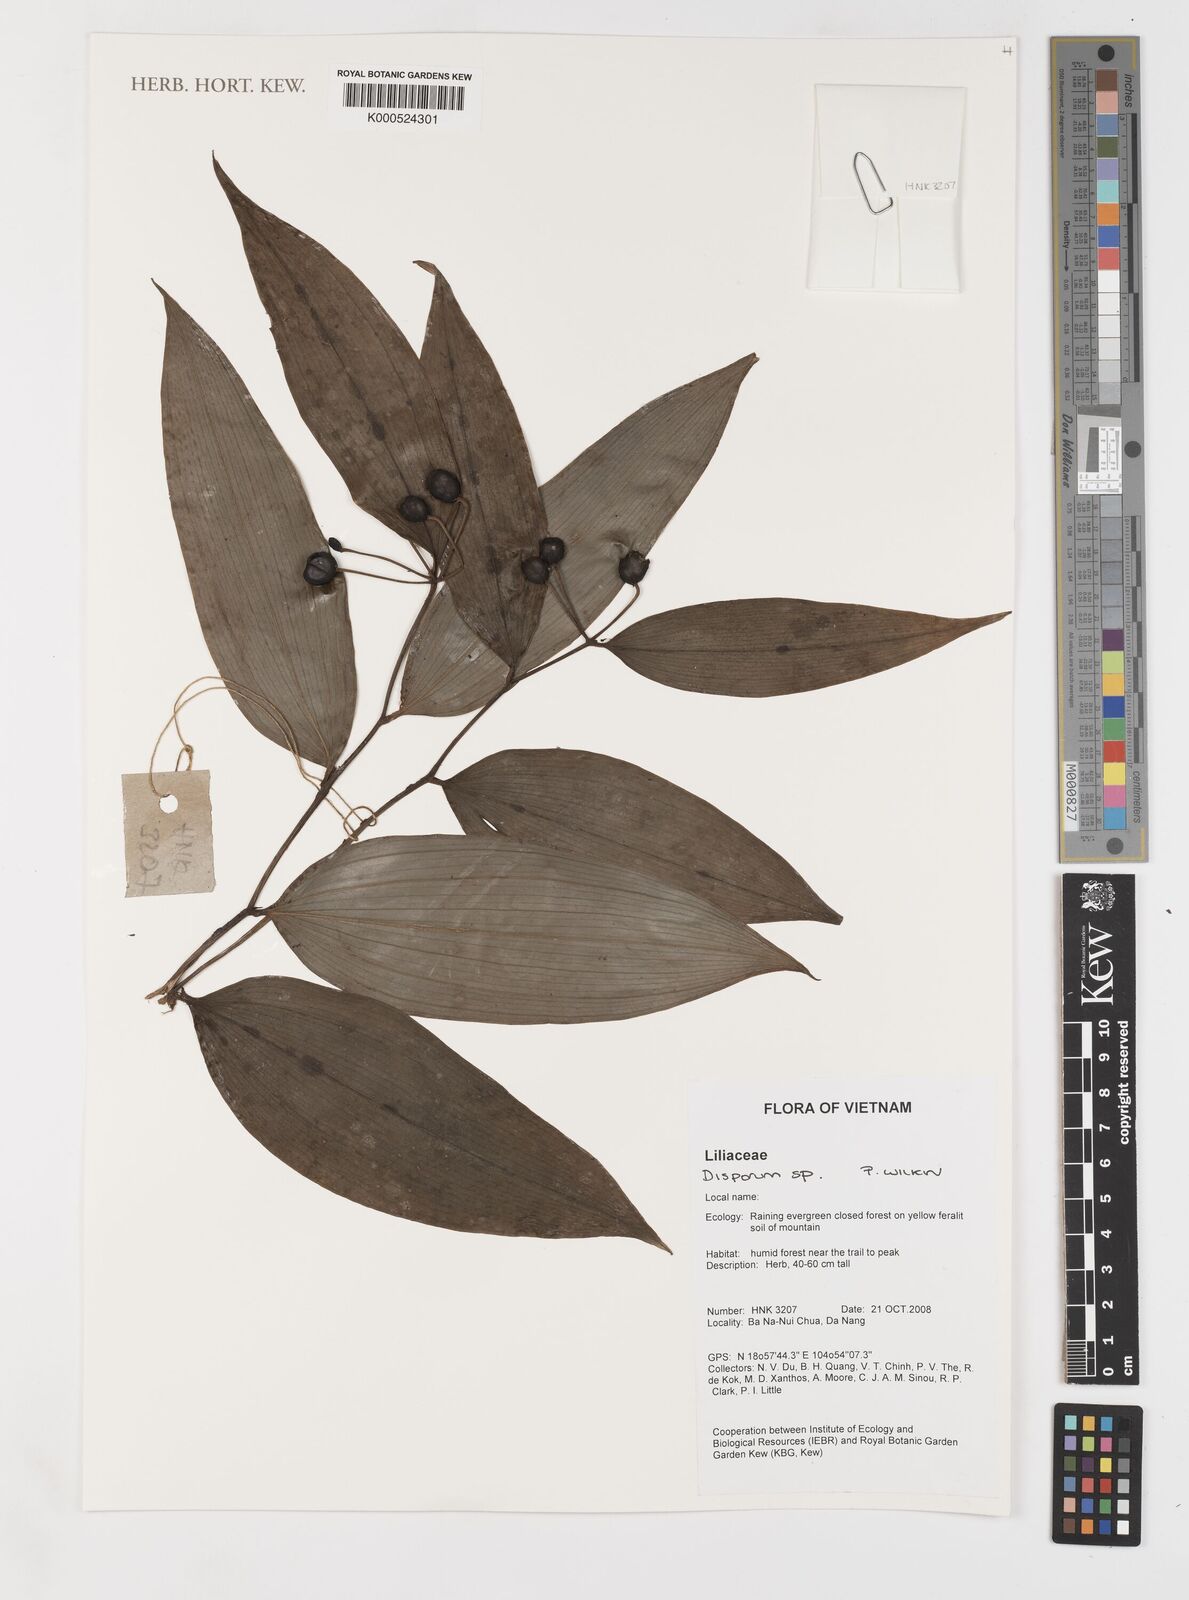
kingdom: Plantae
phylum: Tracheophyta
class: Liliopsida
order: Liliales
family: Colchicaceae
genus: Disporum
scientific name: Disporum
